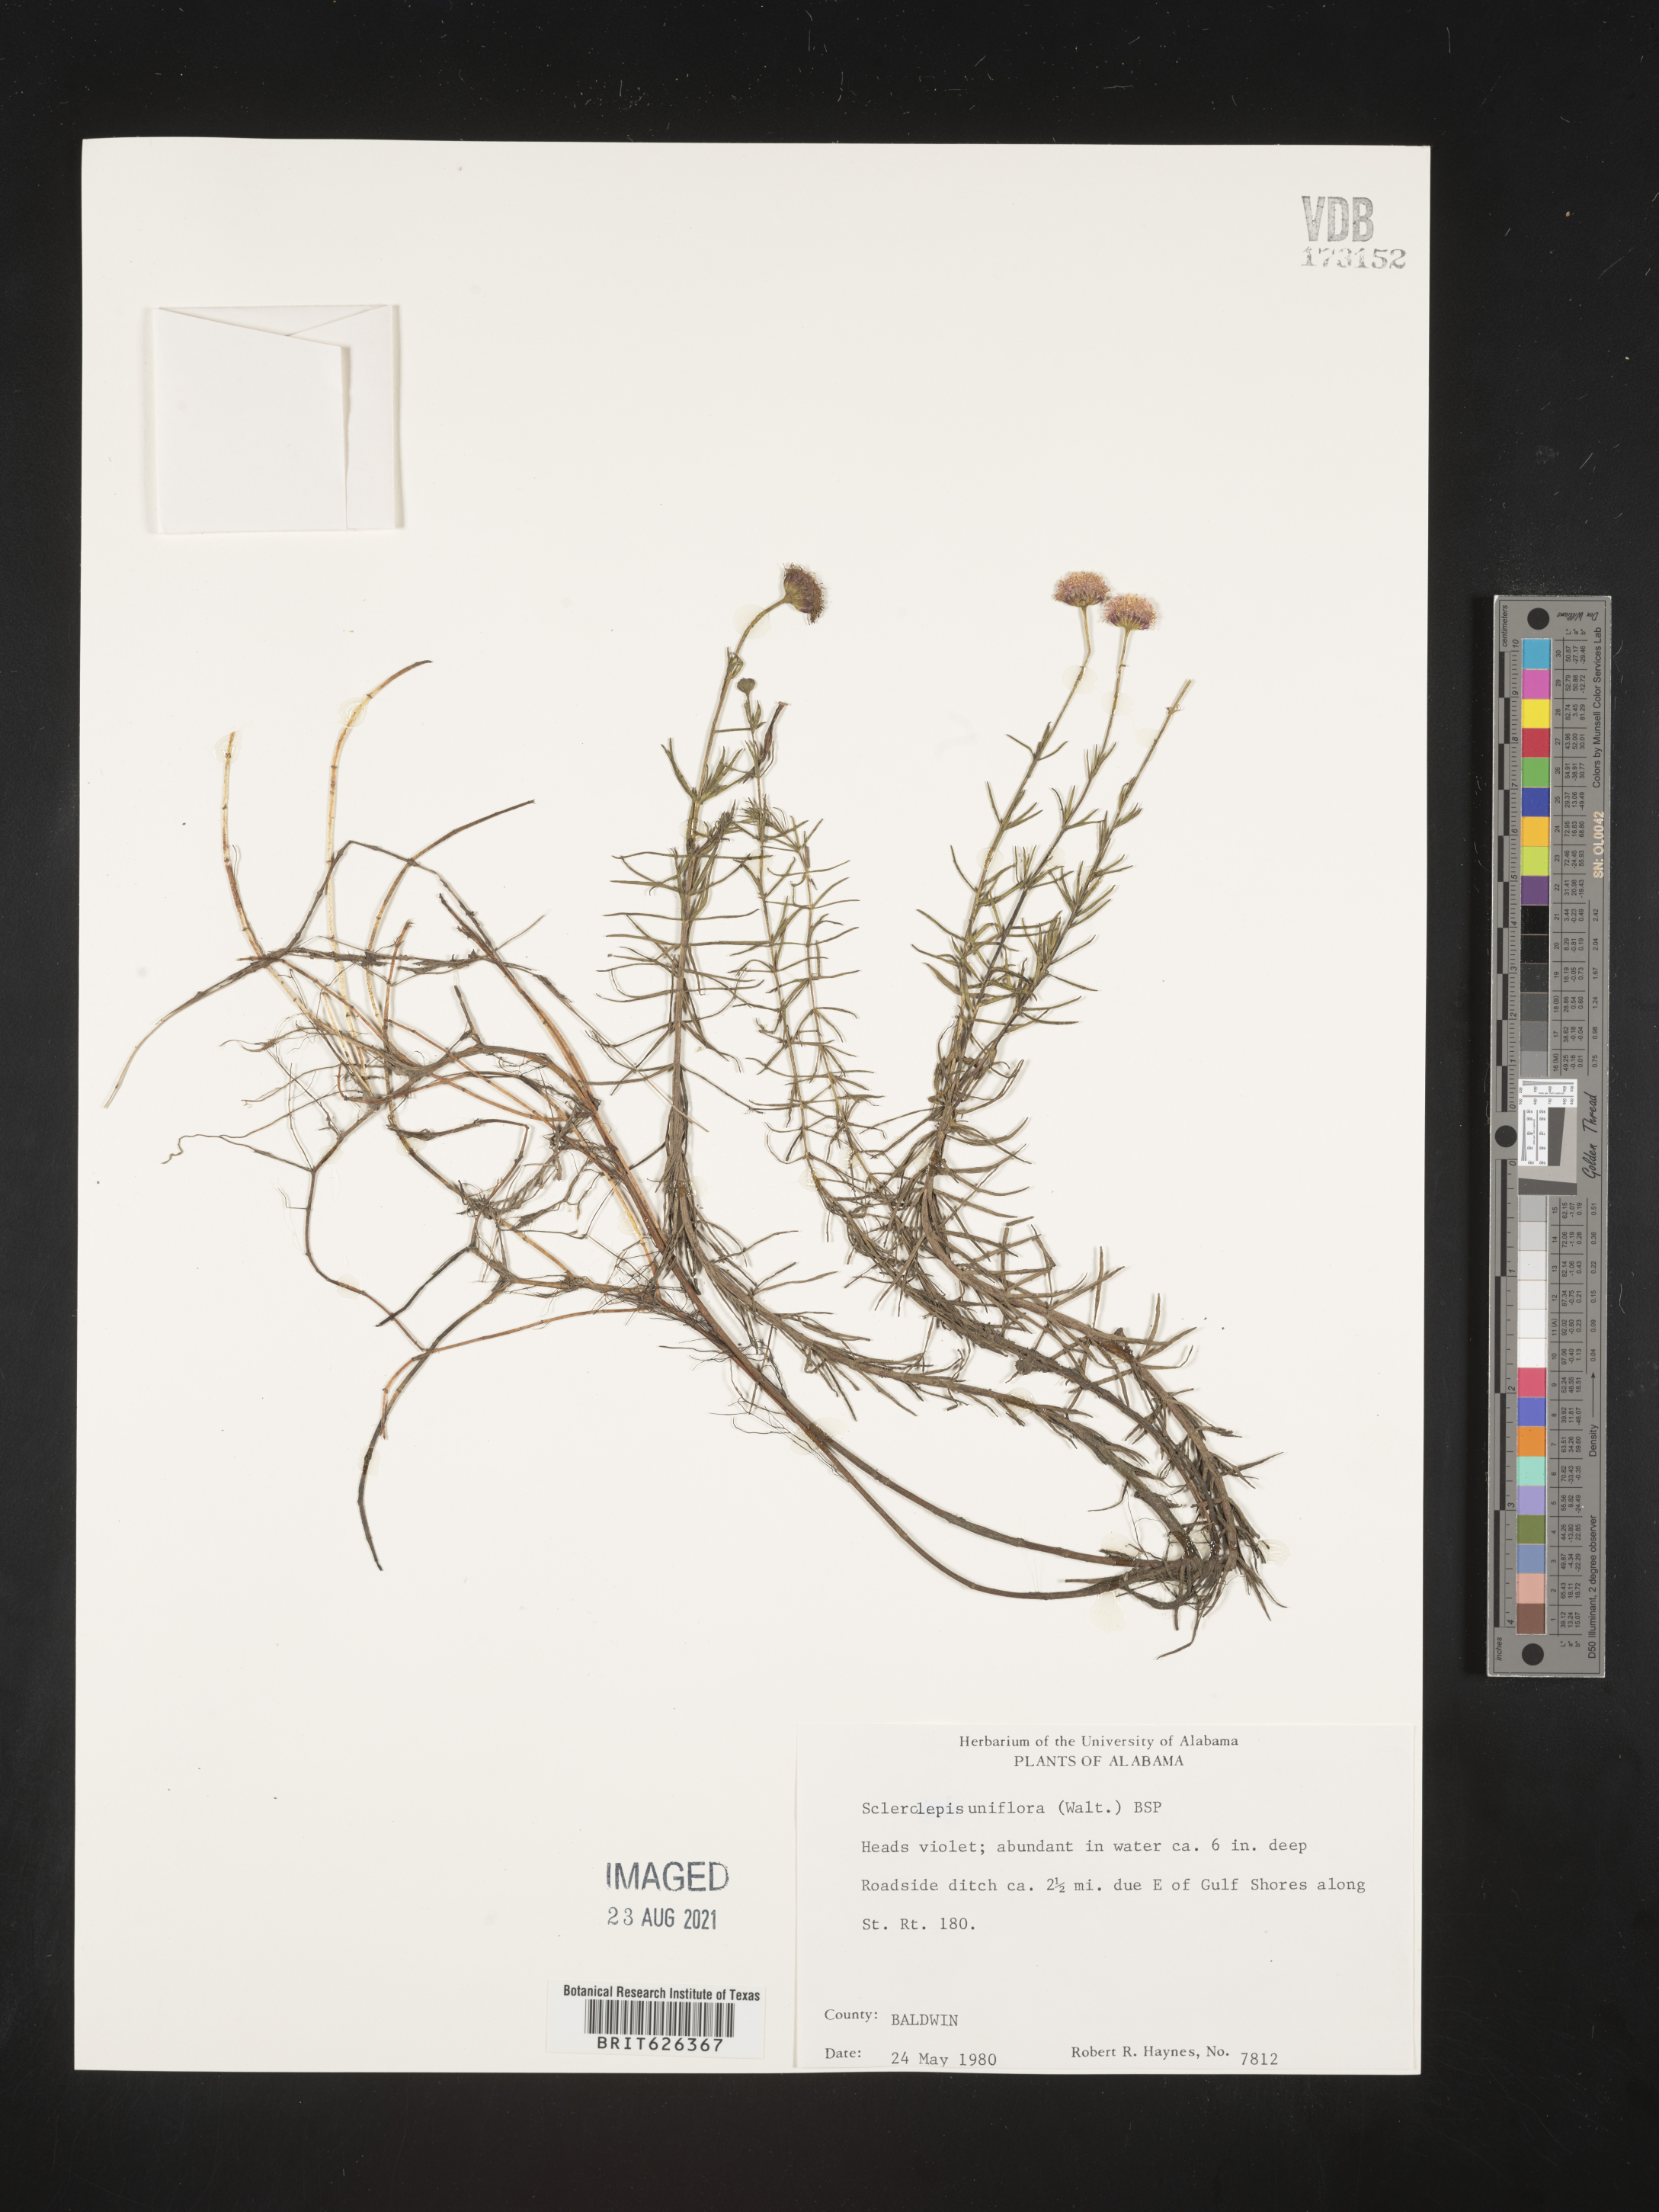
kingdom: Plantae
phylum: Tracheophyta
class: Magnoliopsida
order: Asterales
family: Asteraceae
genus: Sclerolepis
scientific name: Sclerolepis
